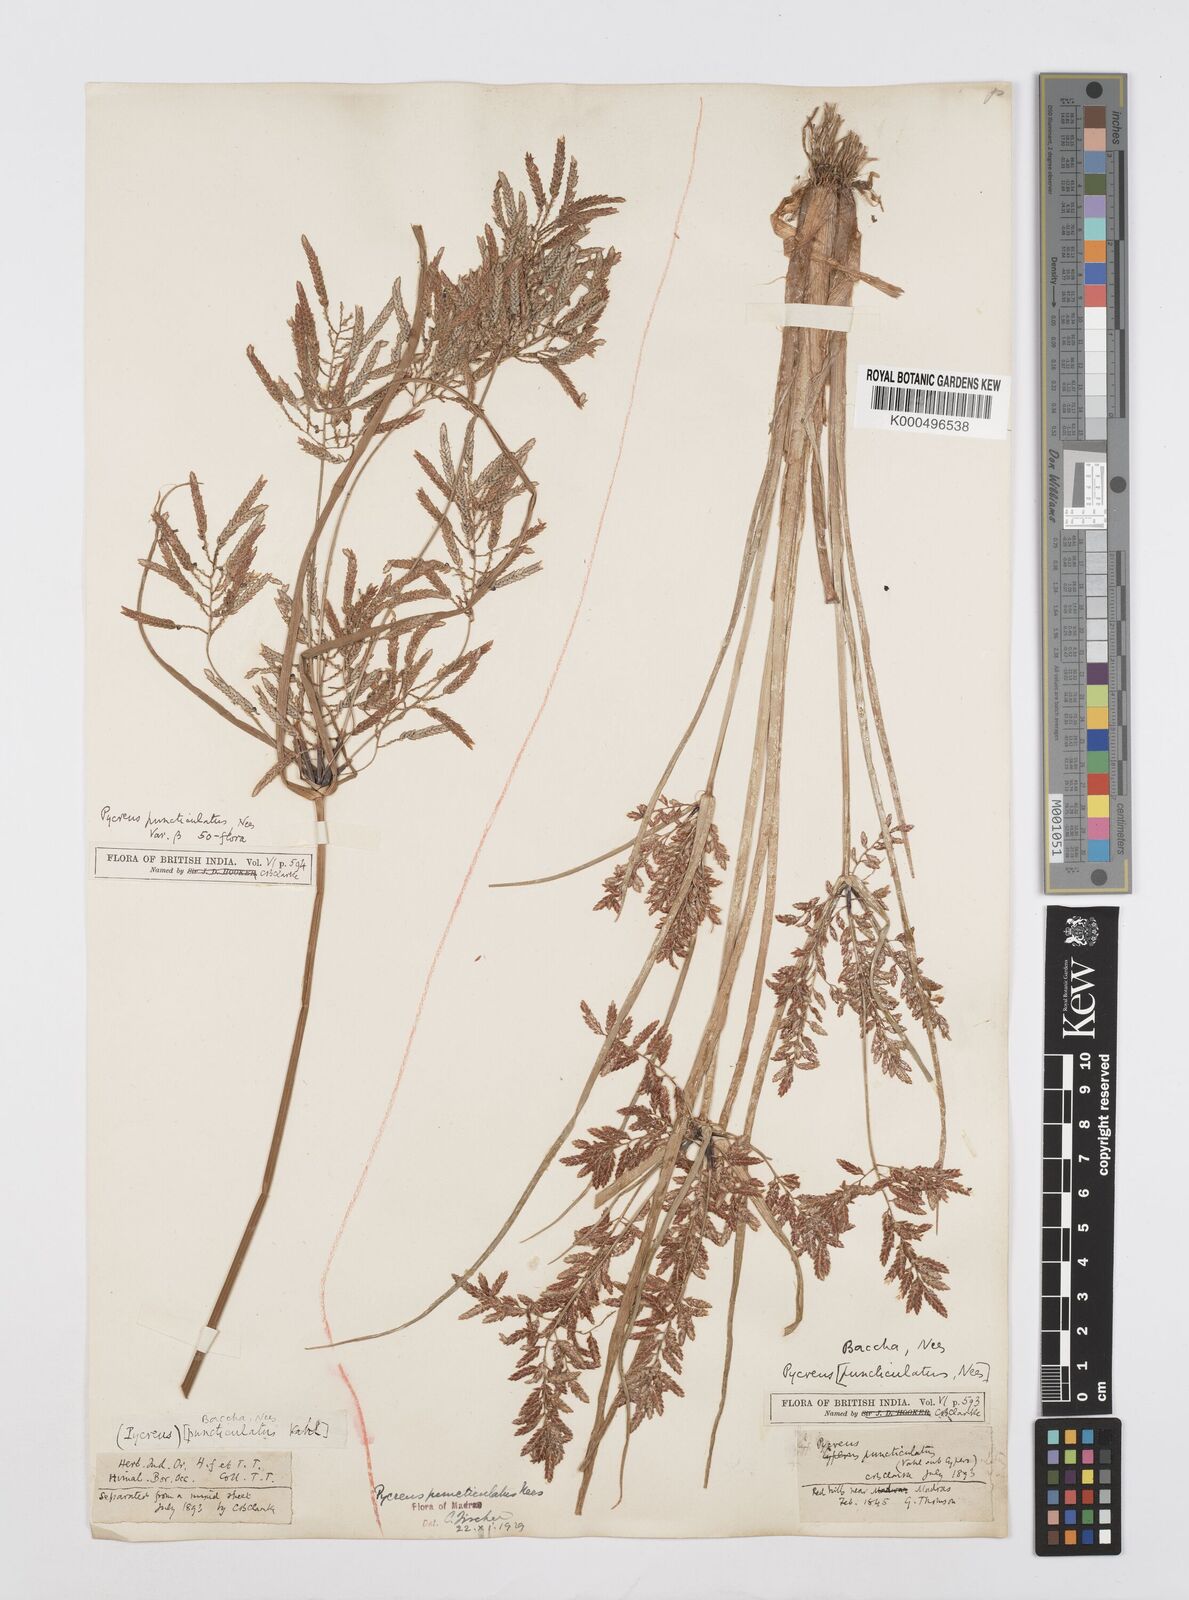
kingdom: Plantae
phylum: Tracheophyta
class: Liliopsida
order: Poales
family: Cyperaceae
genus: Cyperus
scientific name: Cyperus puncticulatus
